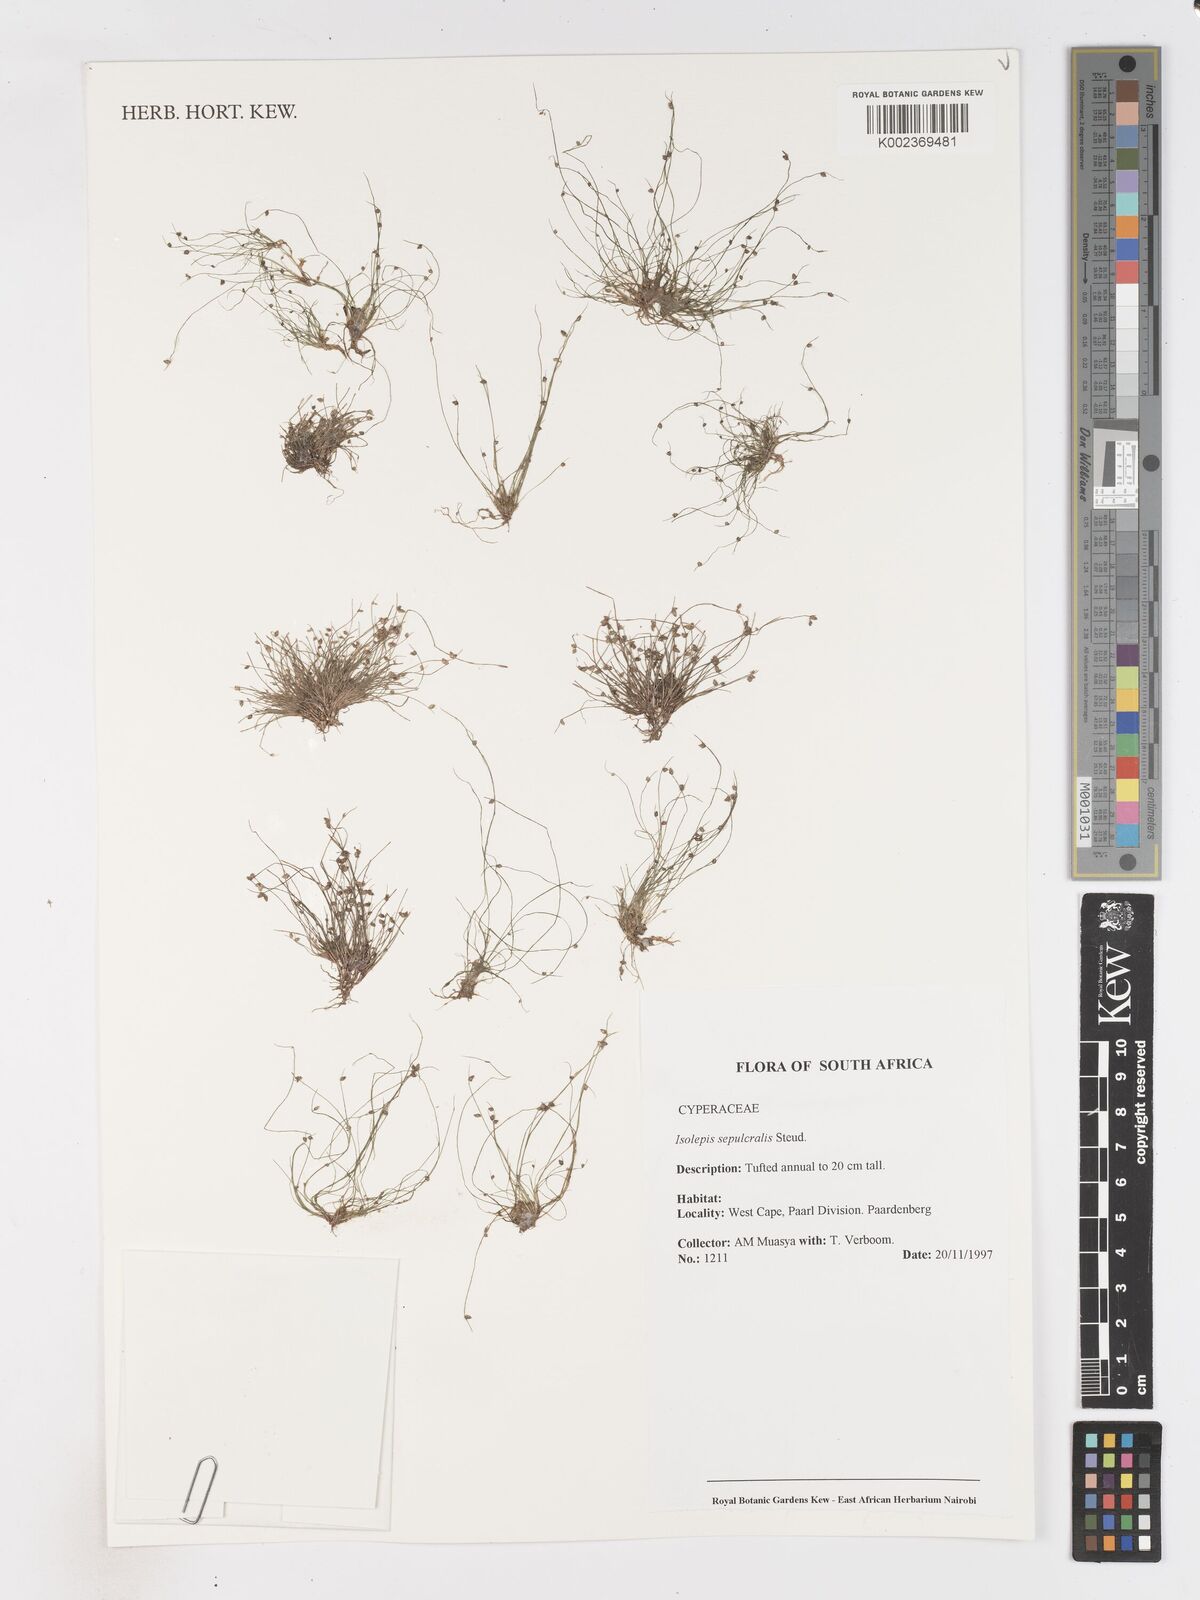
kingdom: Plantae
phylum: Tracheophyta
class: Liliopsida
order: Poales
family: Cyperaceae
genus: Isolepis
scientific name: Isolepis sepulcralis
